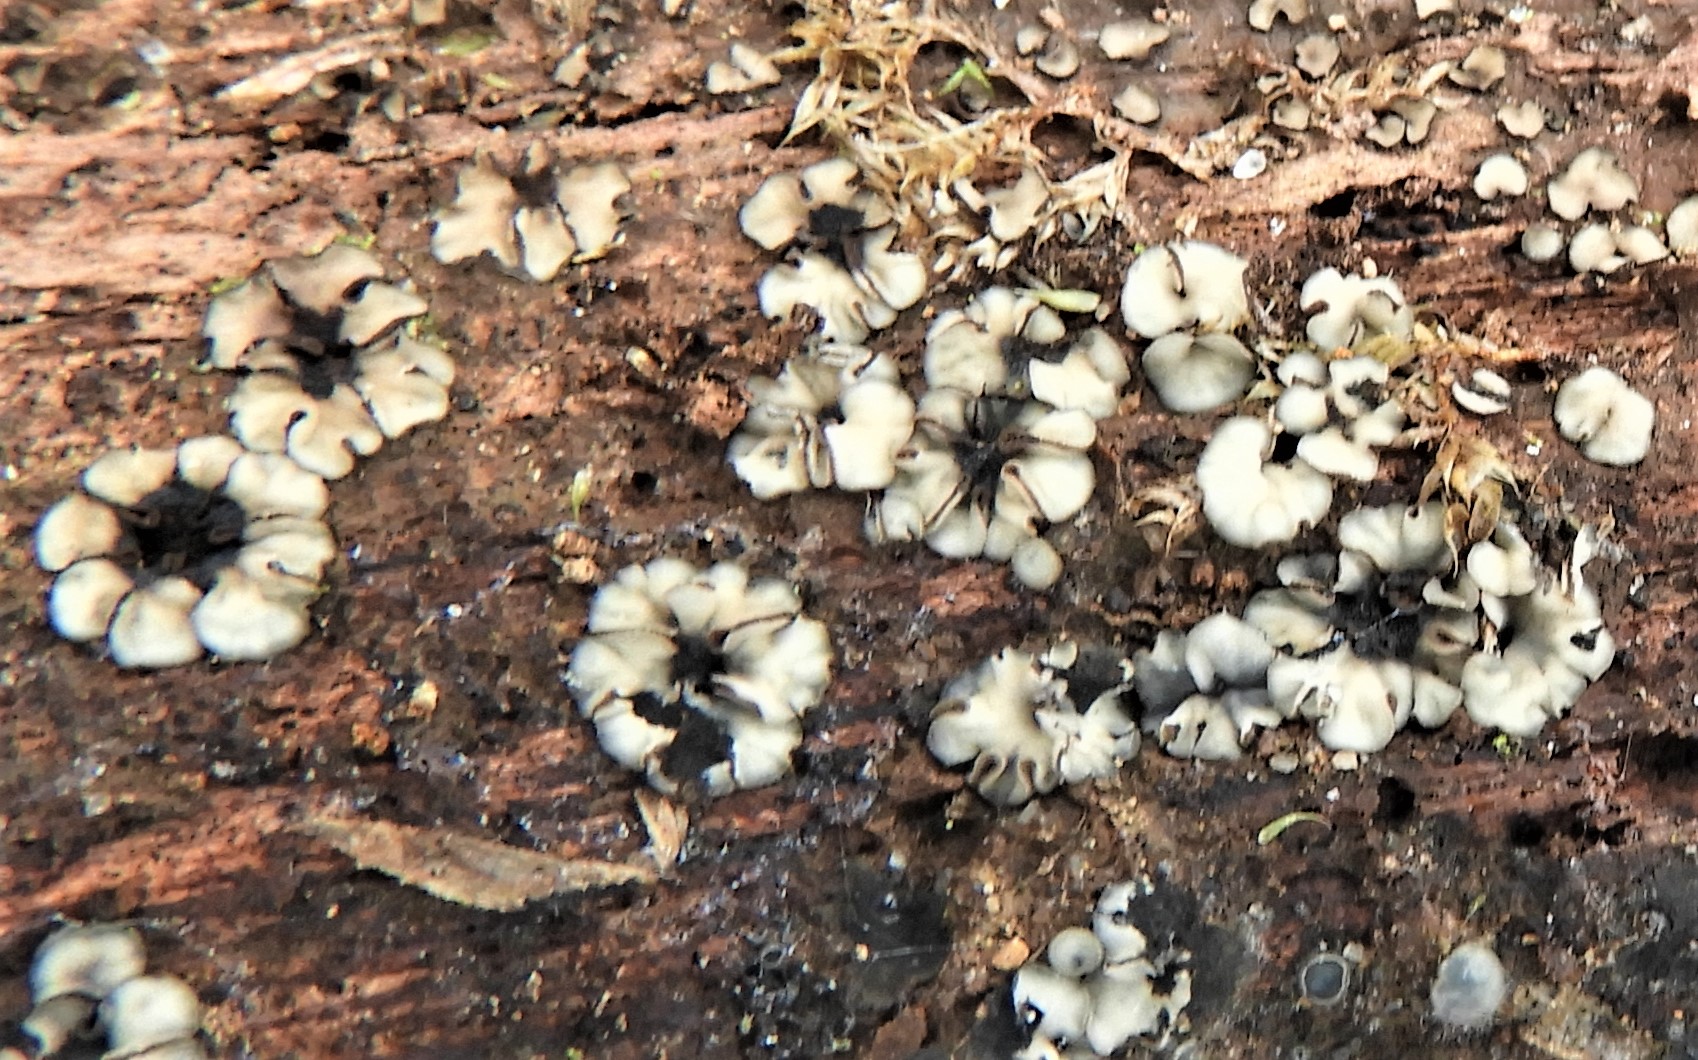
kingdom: Fungi
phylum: Ascomycota
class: Leotiomycetes
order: Helotiales
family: Mollisiaceae
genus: Mollisia
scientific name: Mollisia
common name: gråskive
